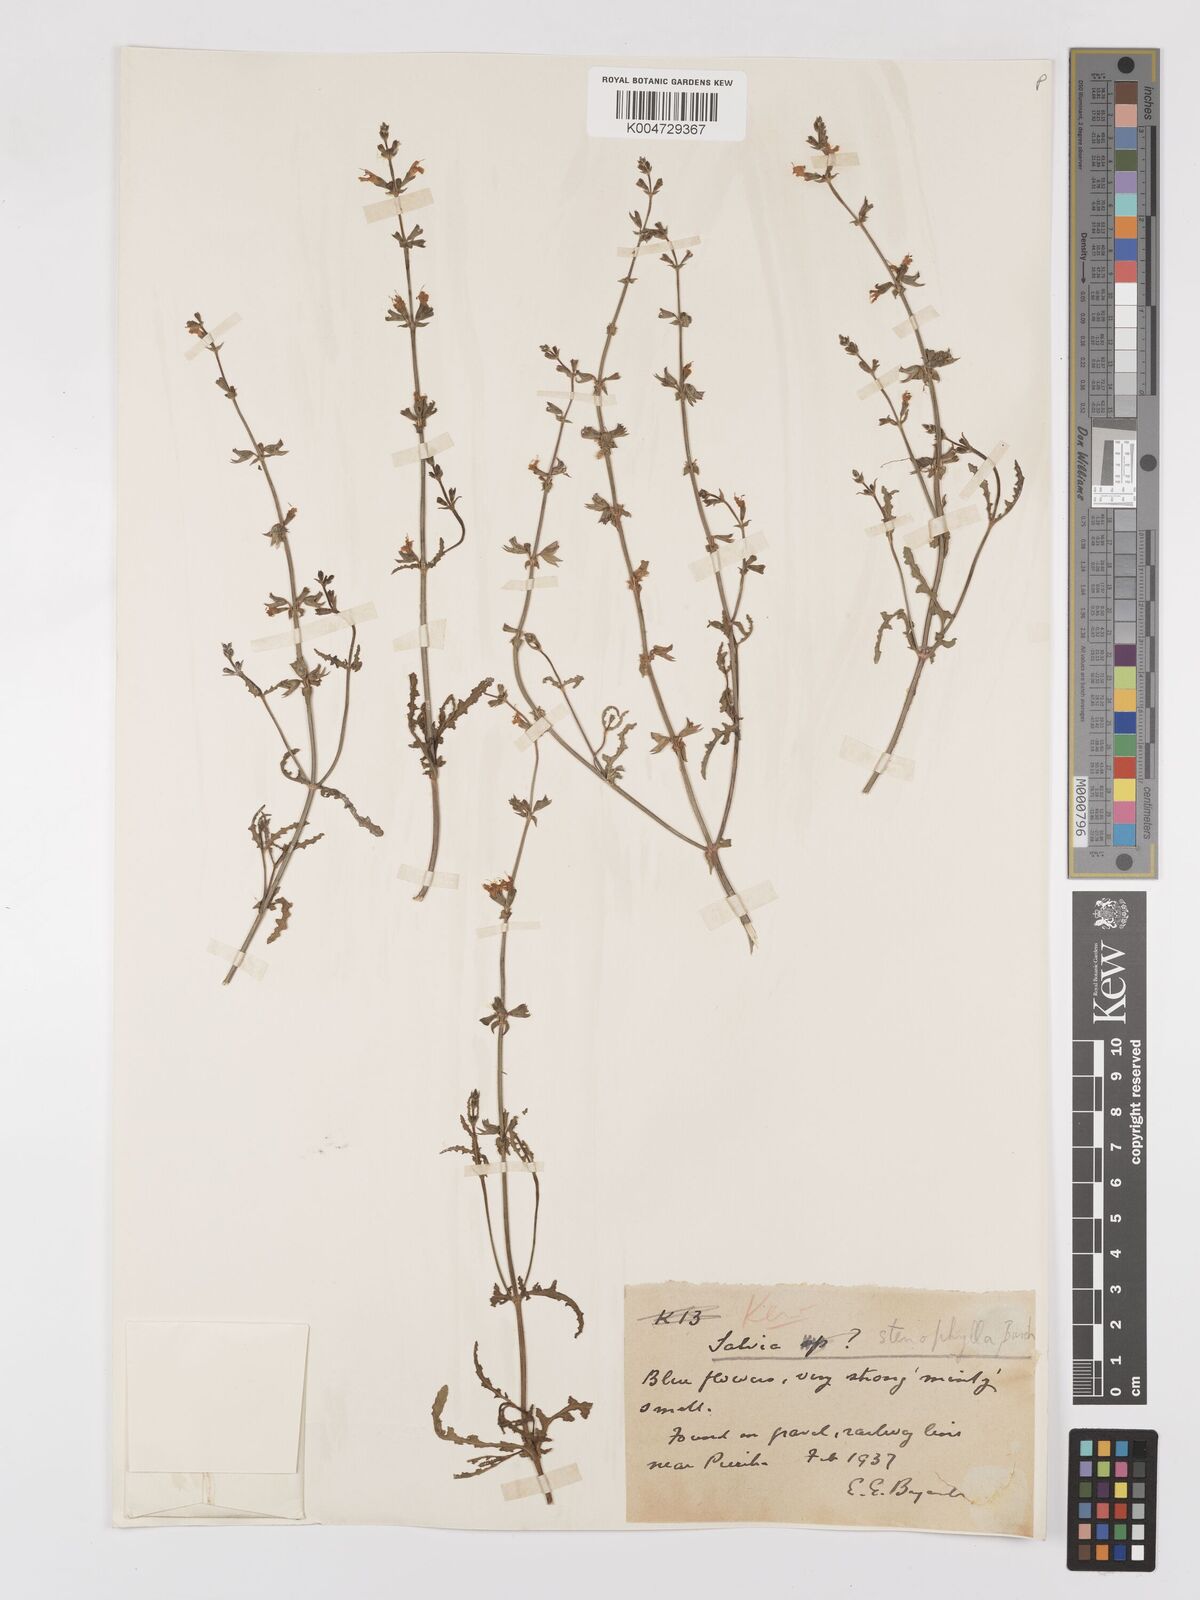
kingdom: Plantae
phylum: Tracheophyta
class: Magnoliopsida
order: Lamiales
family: Lamiaceae
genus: Salvia
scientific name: Salvia stenophylla
